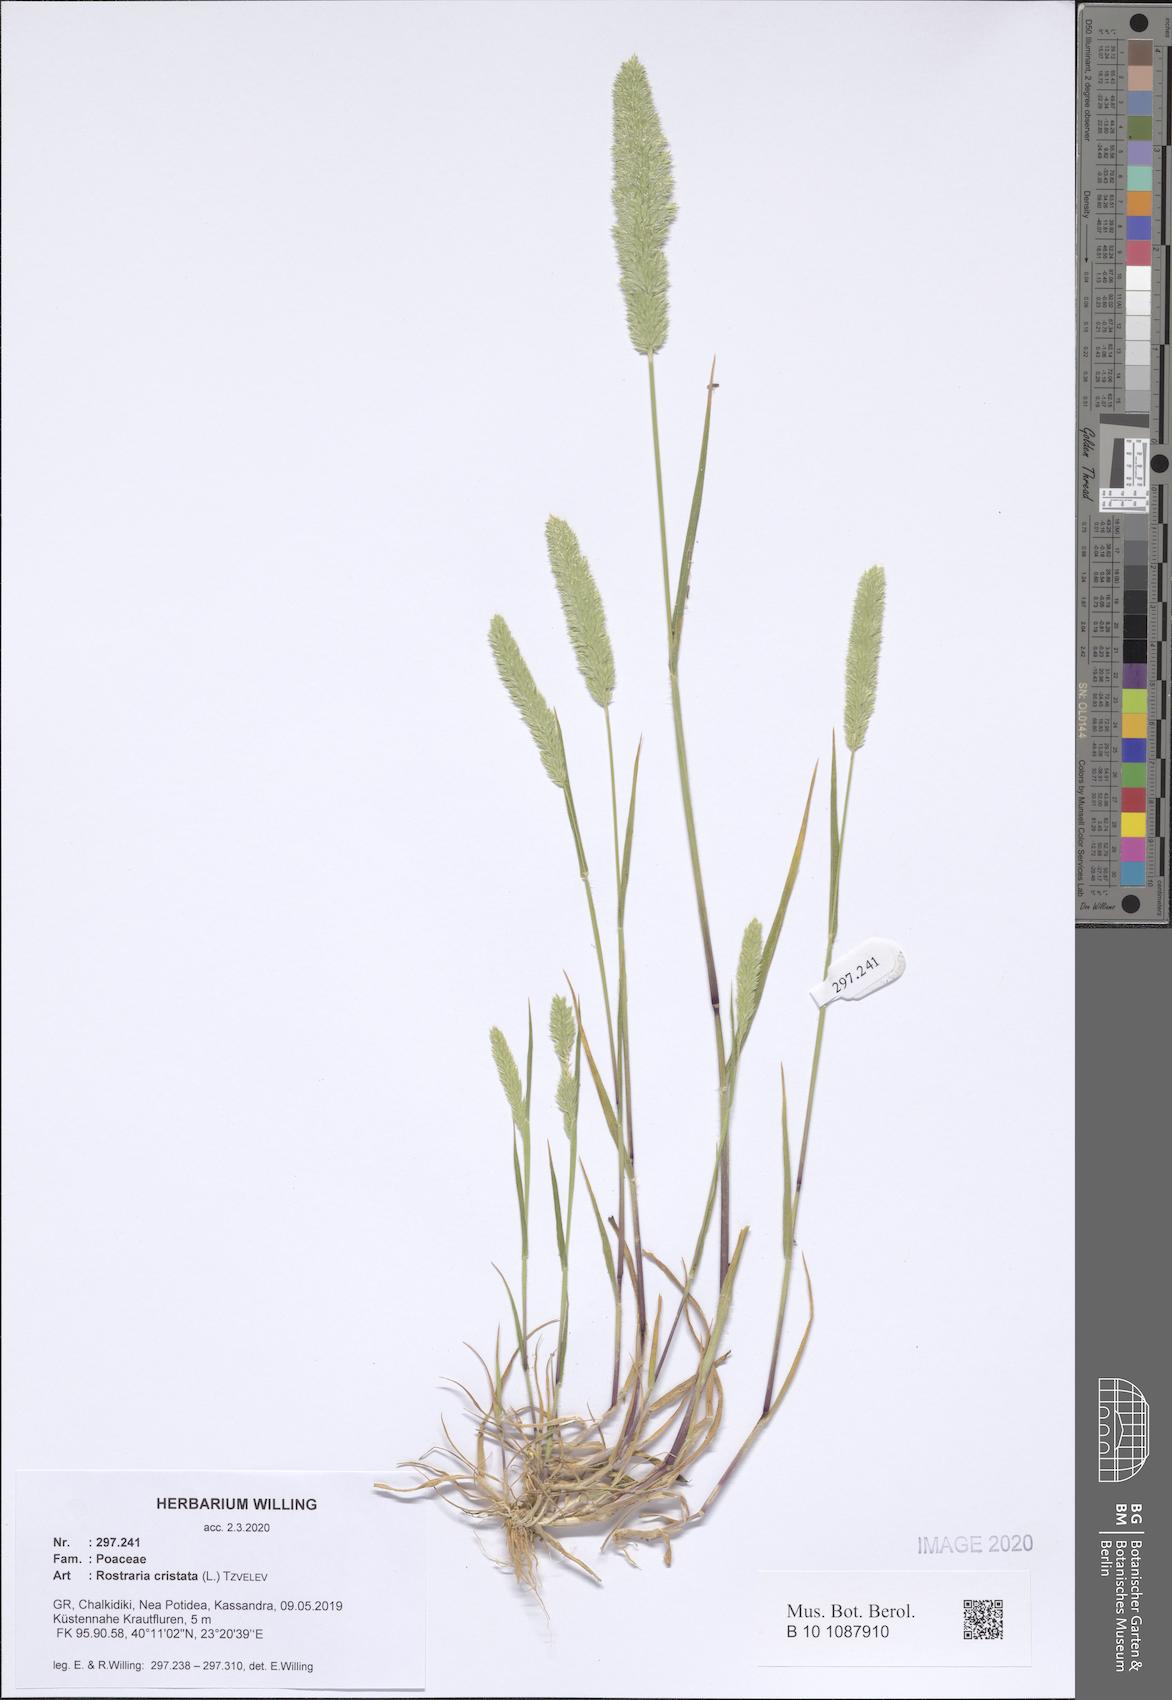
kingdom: Plantae
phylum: Tracheophyta
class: Liliopsida
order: Poales
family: Poaceae
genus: Rostraria
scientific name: Rostraria cristata
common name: Mediterranean hair-grass
